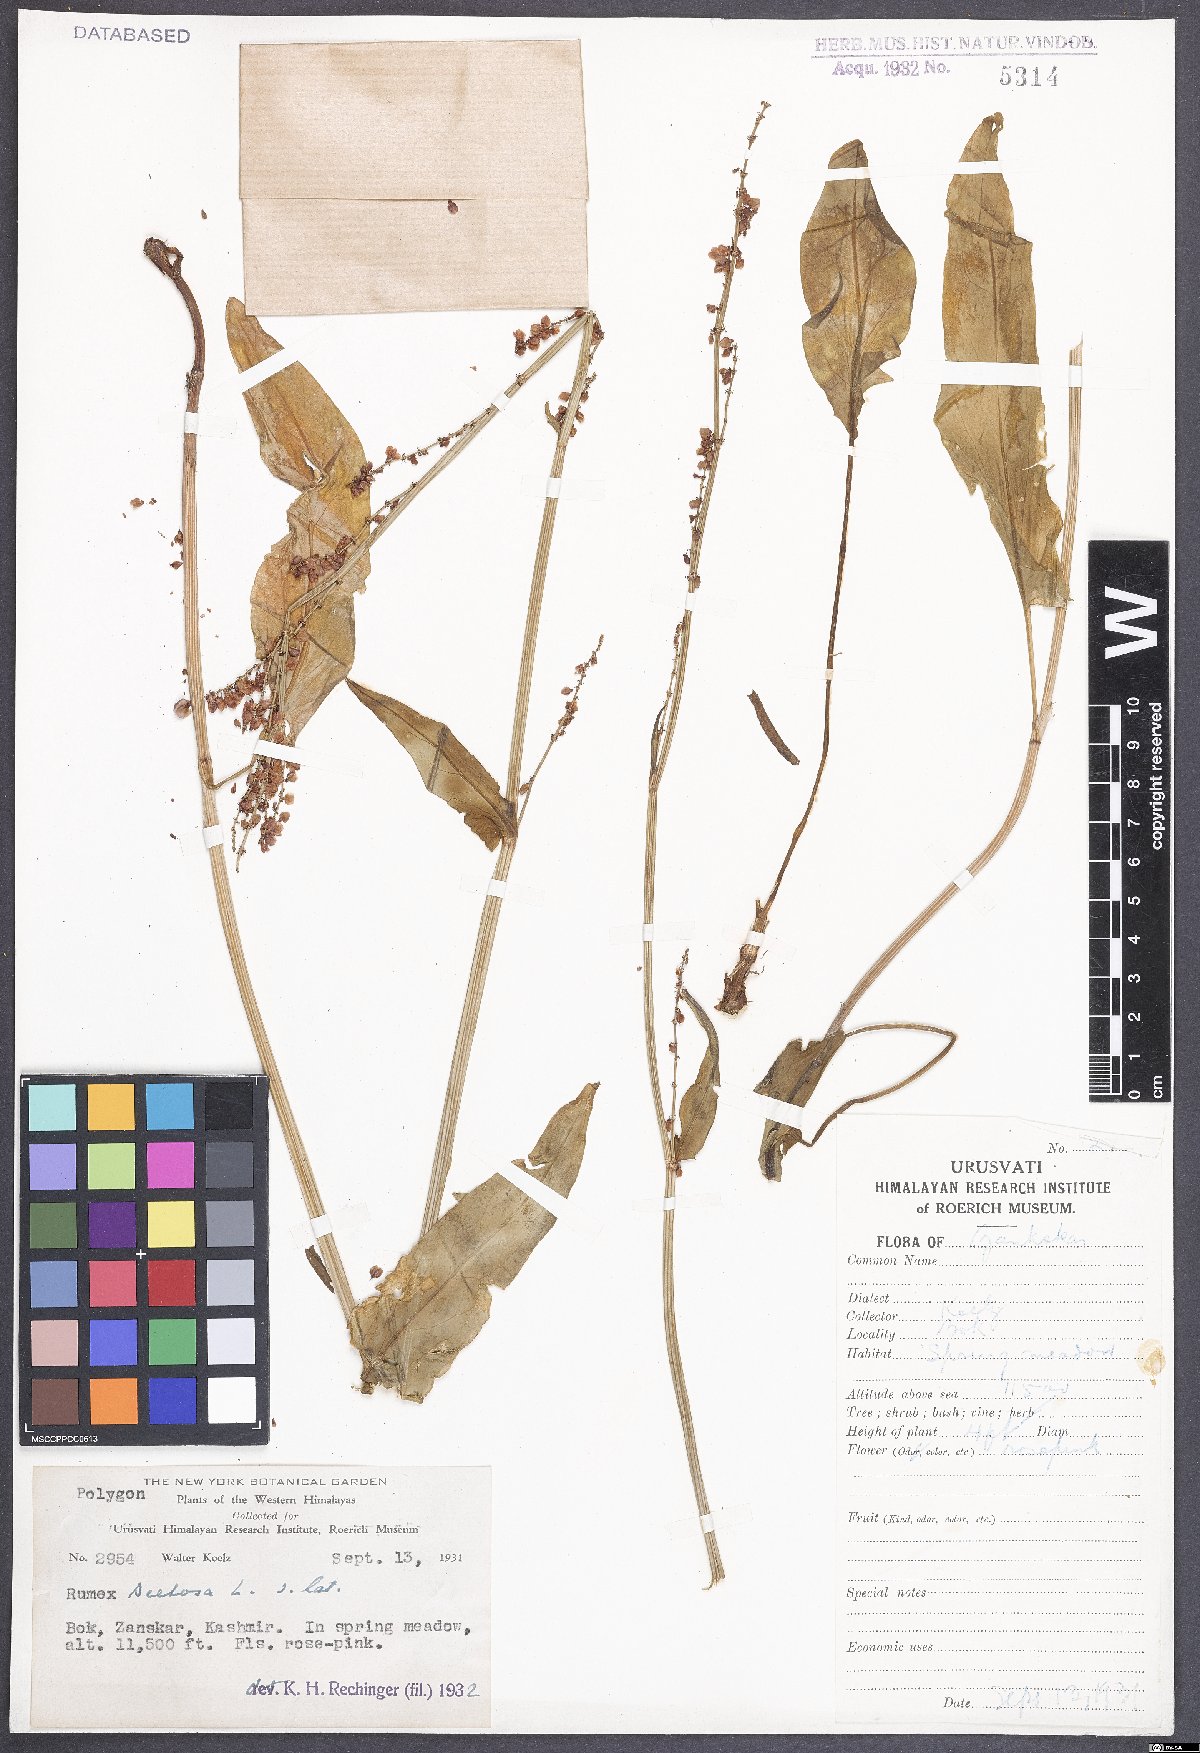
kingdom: Plantae
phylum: Tracheophyta
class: Magnoliopsida
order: Caryophyllales
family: Polygonaceae
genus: Rumex
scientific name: Rumex acetosa
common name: Garden sorrel
